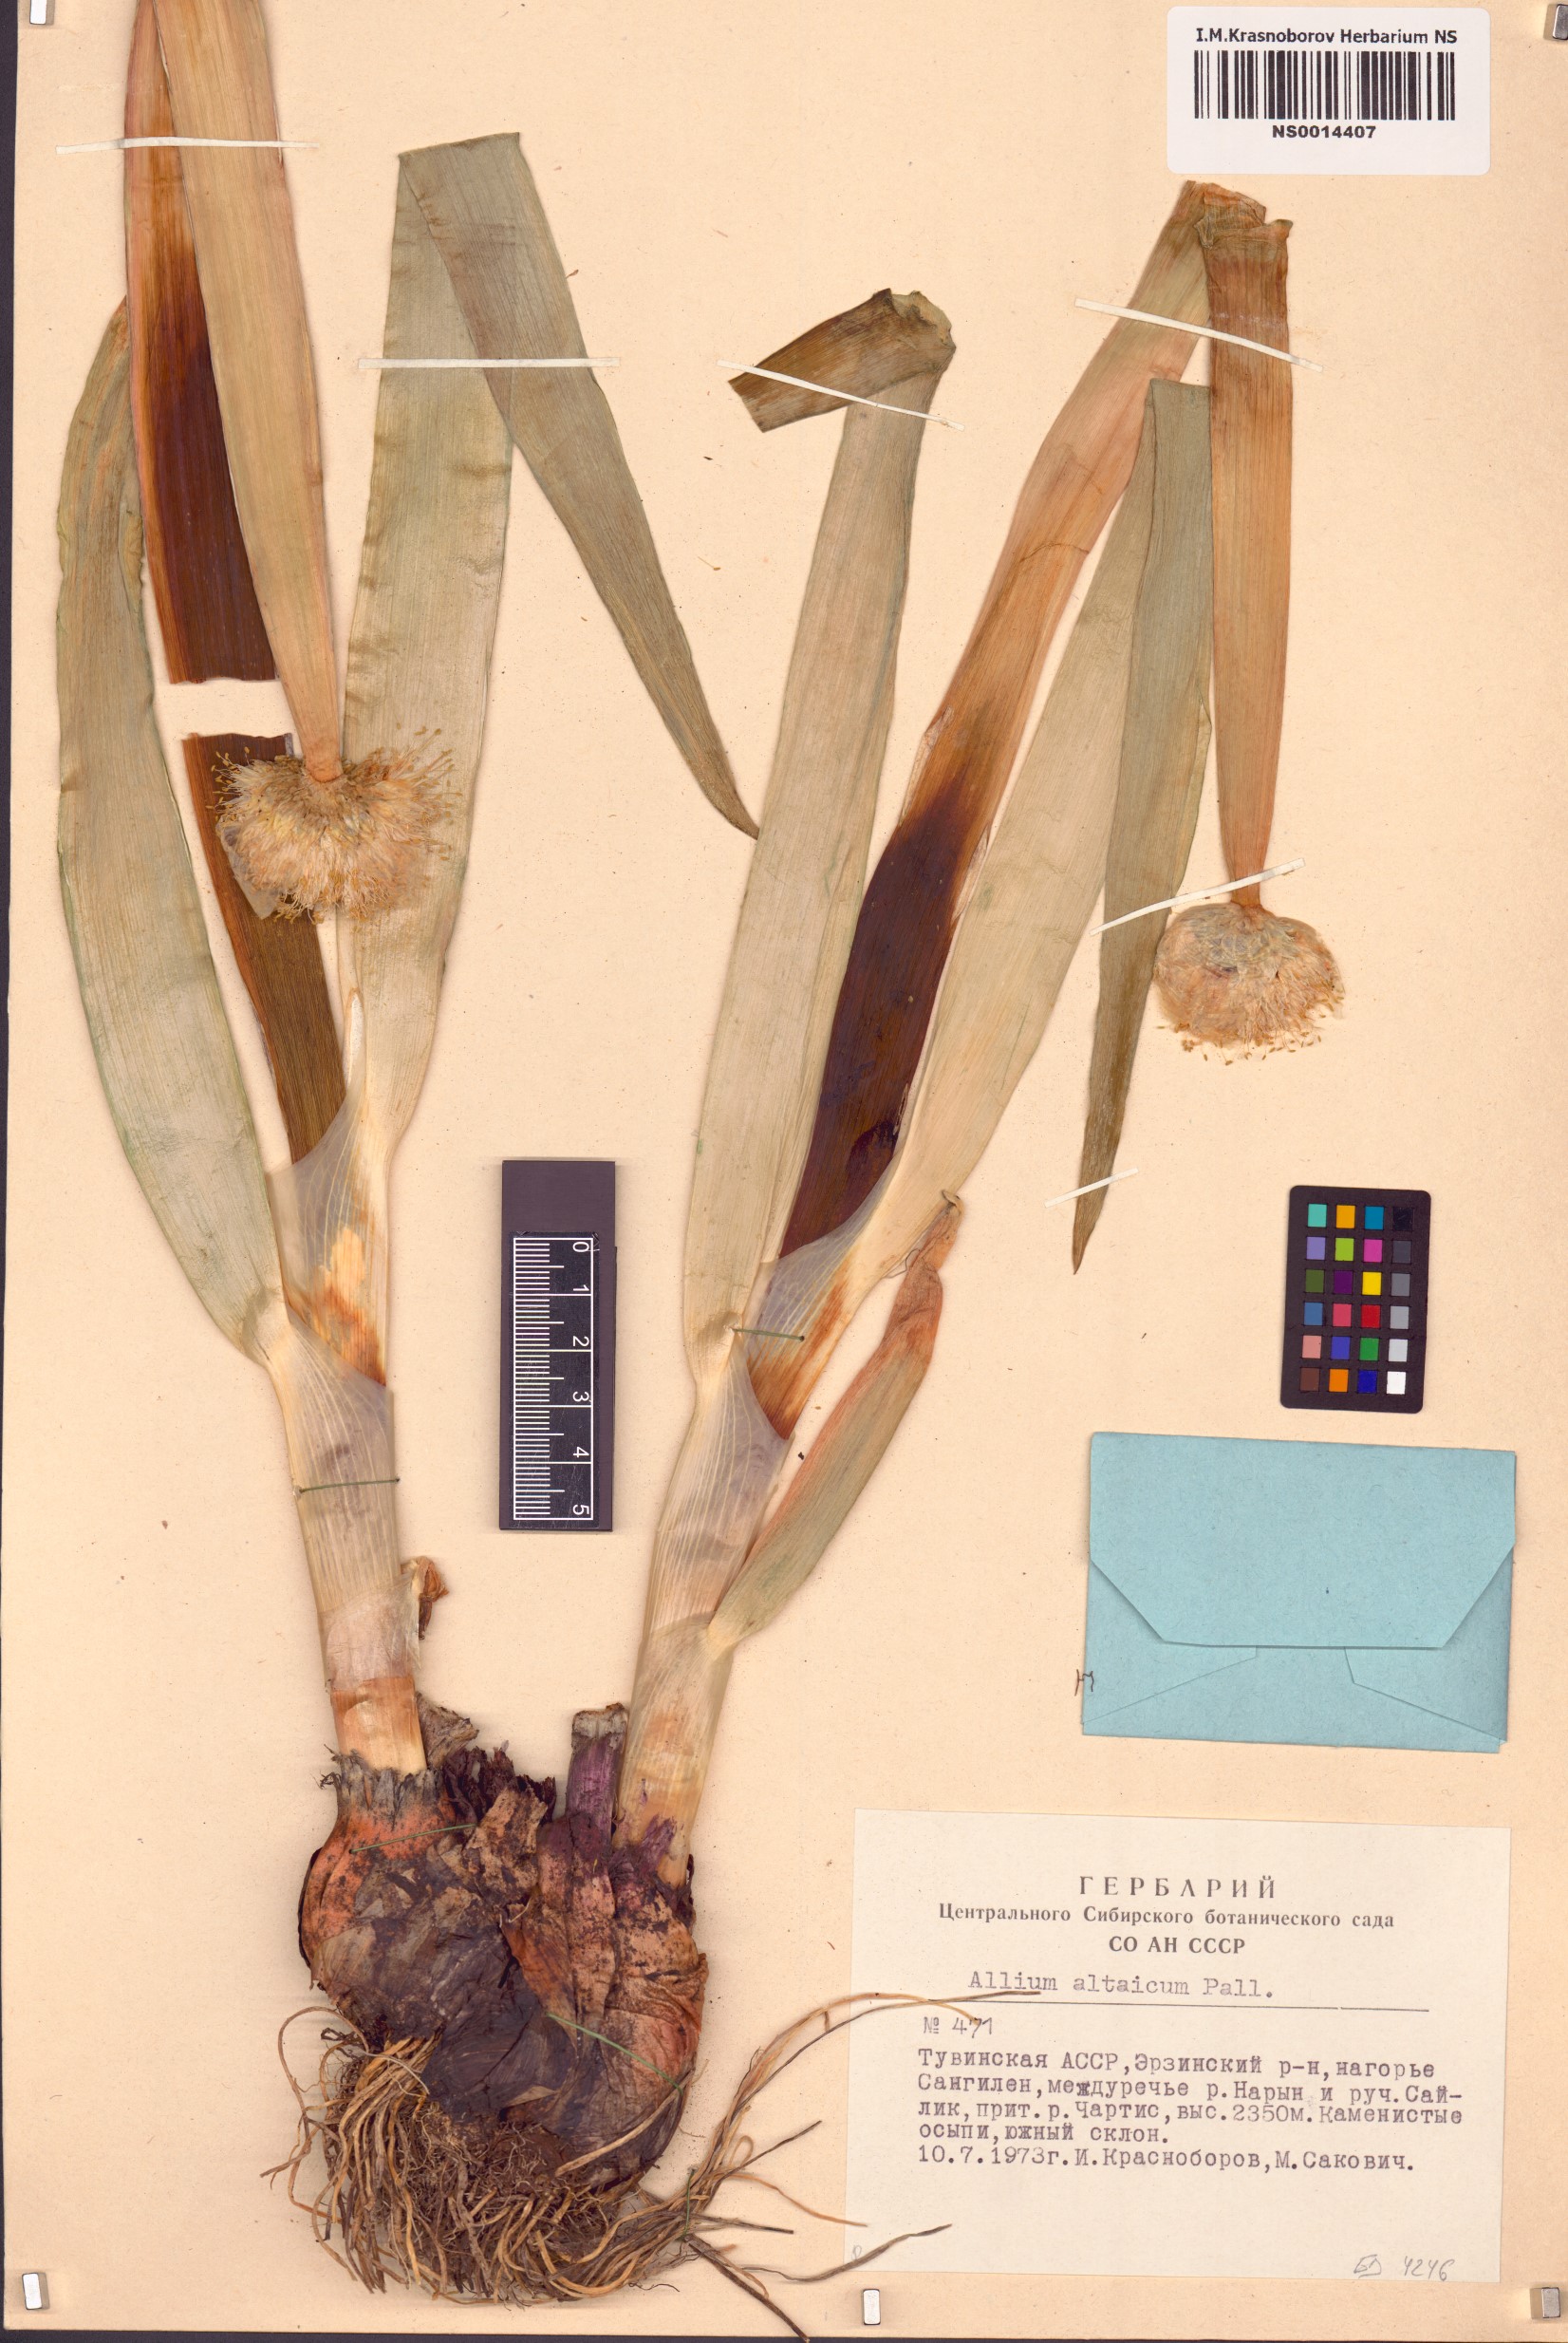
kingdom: Plantae
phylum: Tracheophyta
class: Liliopsida
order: Asparagales
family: Amaryllidaceae
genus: Allium
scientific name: Allium altaicum
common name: Altai onion
